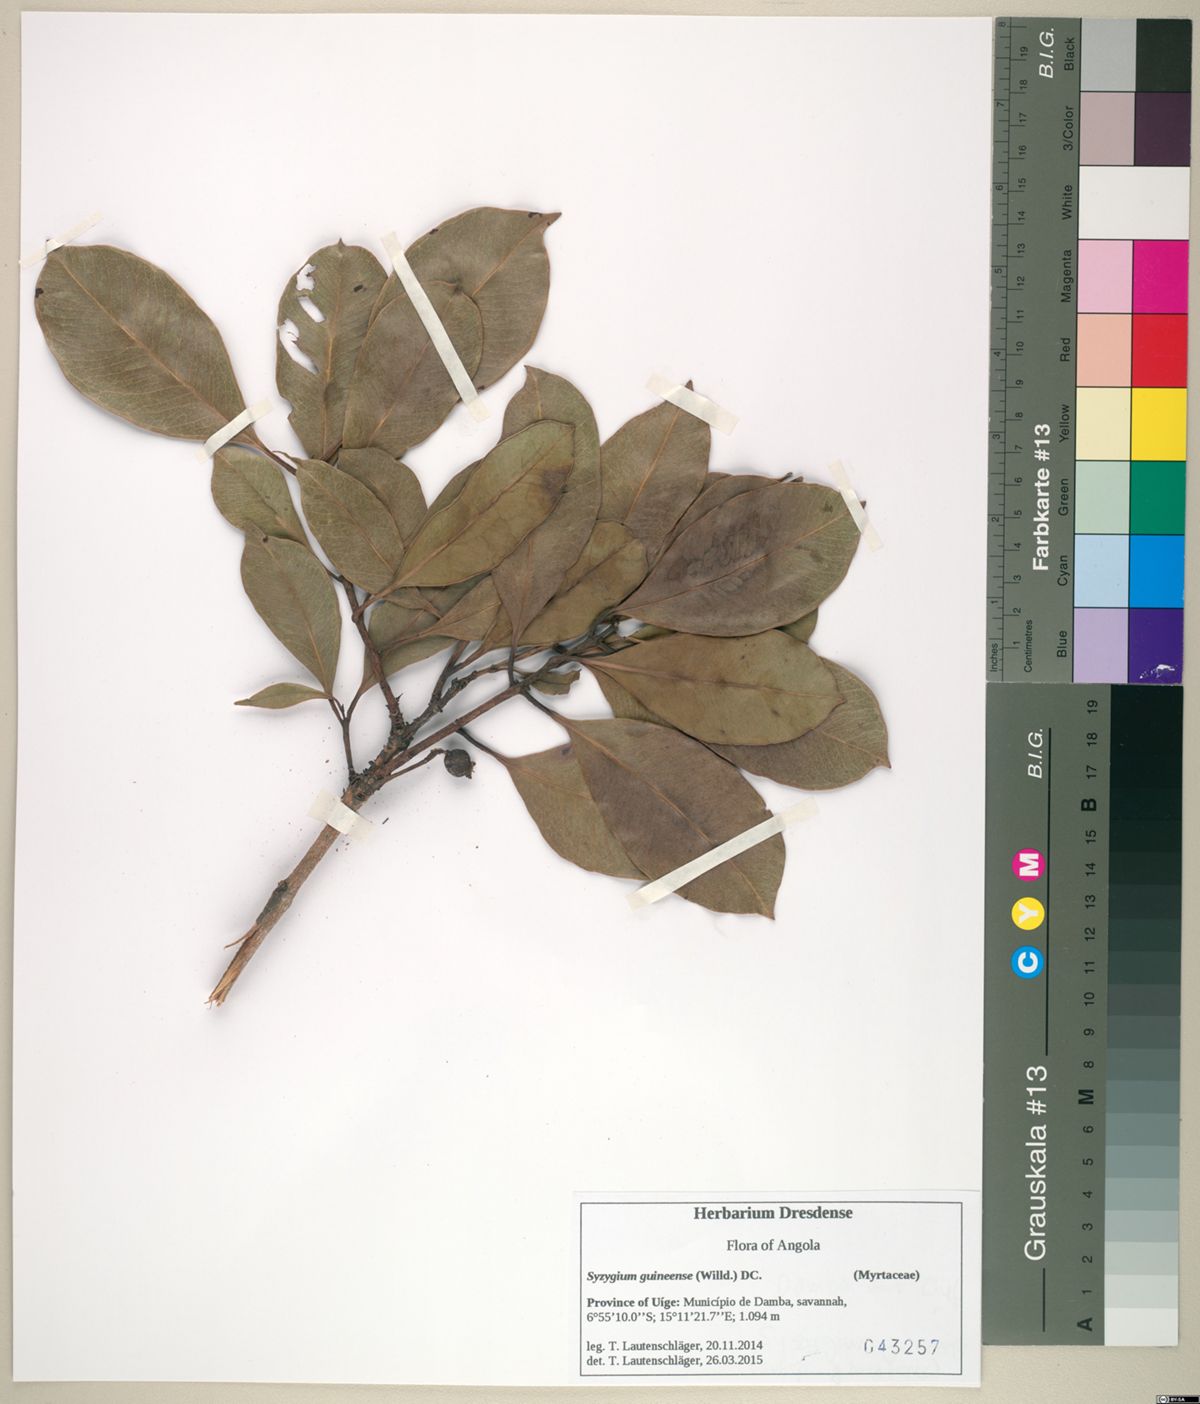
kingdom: Plantae
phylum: Tracheophyta
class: Magnoliopsida
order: Myrtales
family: Myrtaceae
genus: Syzygium
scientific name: Syzygium guineense
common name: Water-pear
